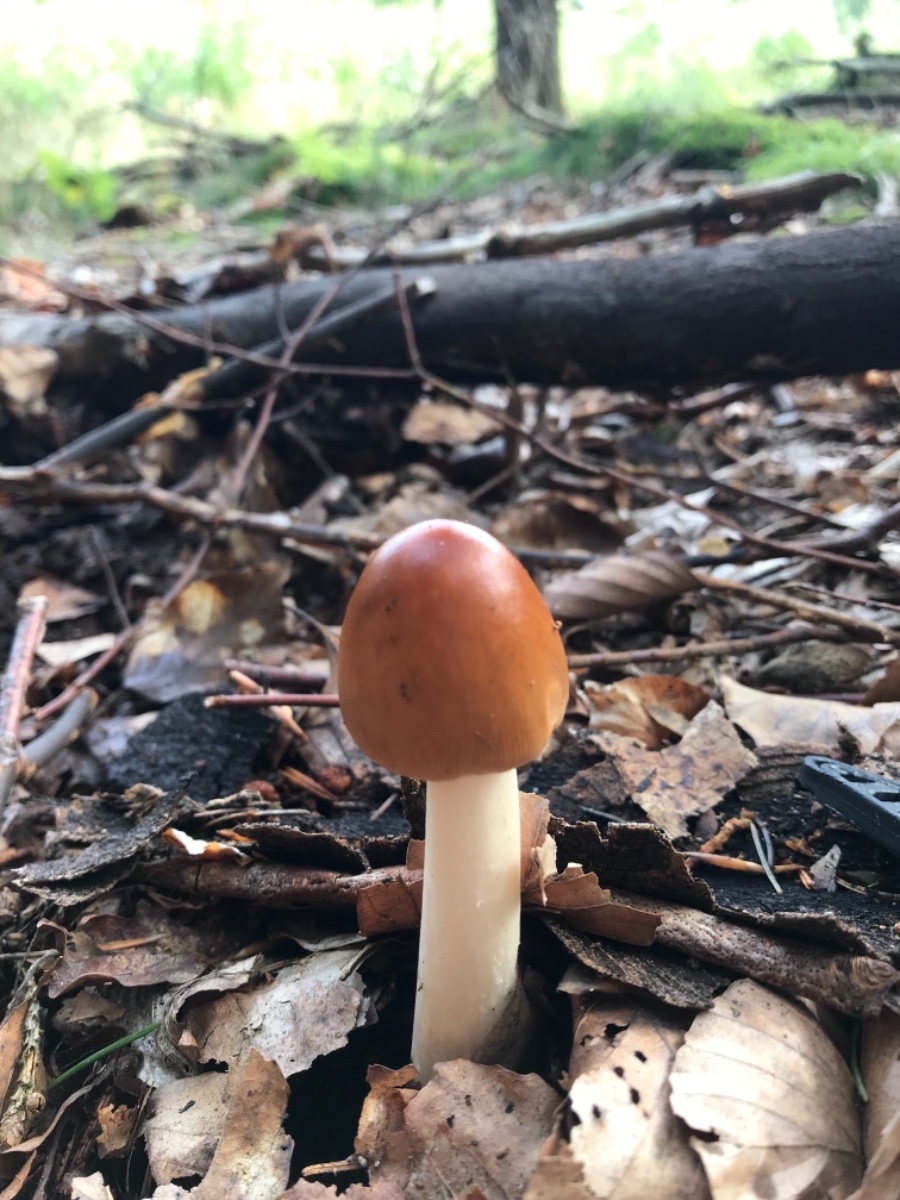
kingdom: Fungi
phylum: Basidiomycota
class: Agaricomycetes
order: Agaricales
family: Amanitaceae
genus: Amanita
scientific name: Amanita fulva
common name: brun kam-fluesvamp
